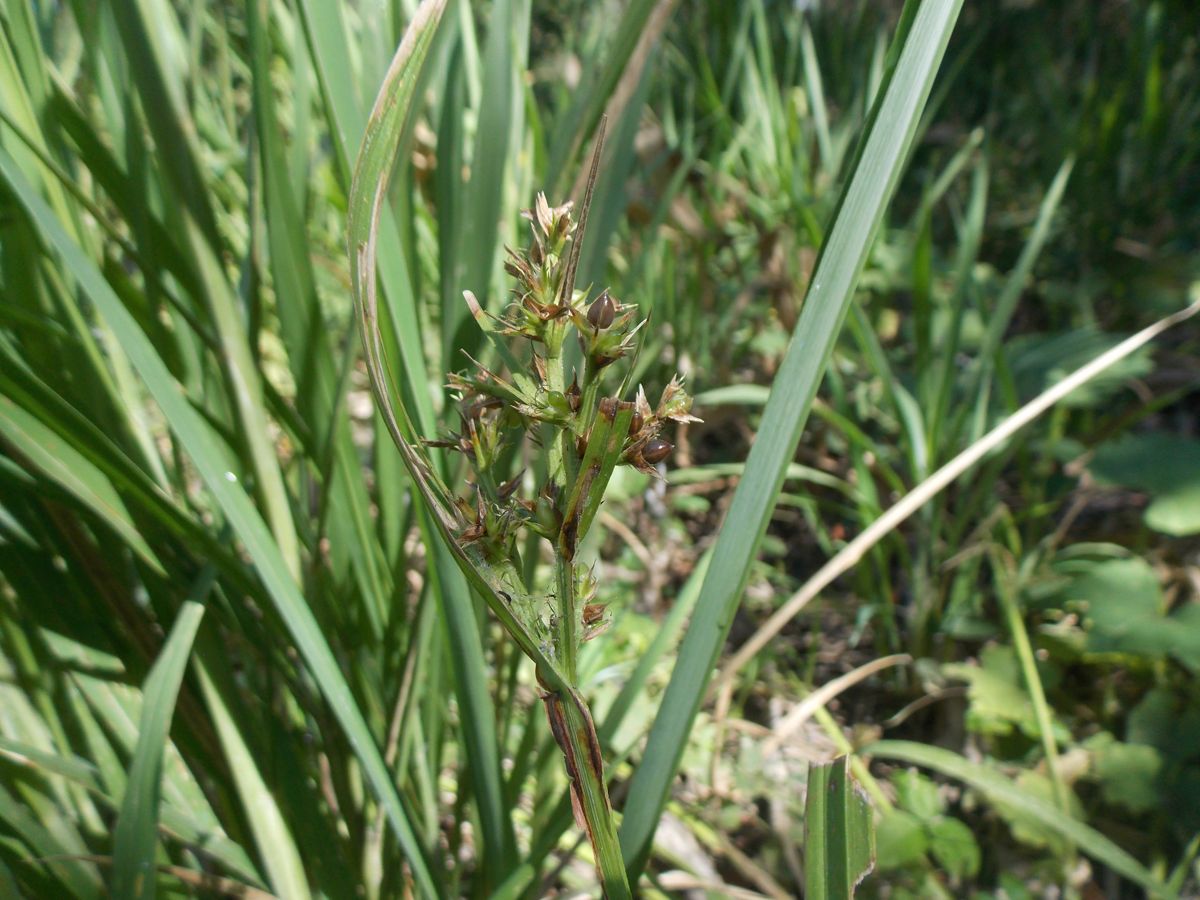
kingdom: Plantae
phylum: Tracheophyta
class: Liliopsida
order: Poales
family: Cyperaceae
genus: Scleria
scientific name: Scleria gaertneri
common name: Cortadera blanca
